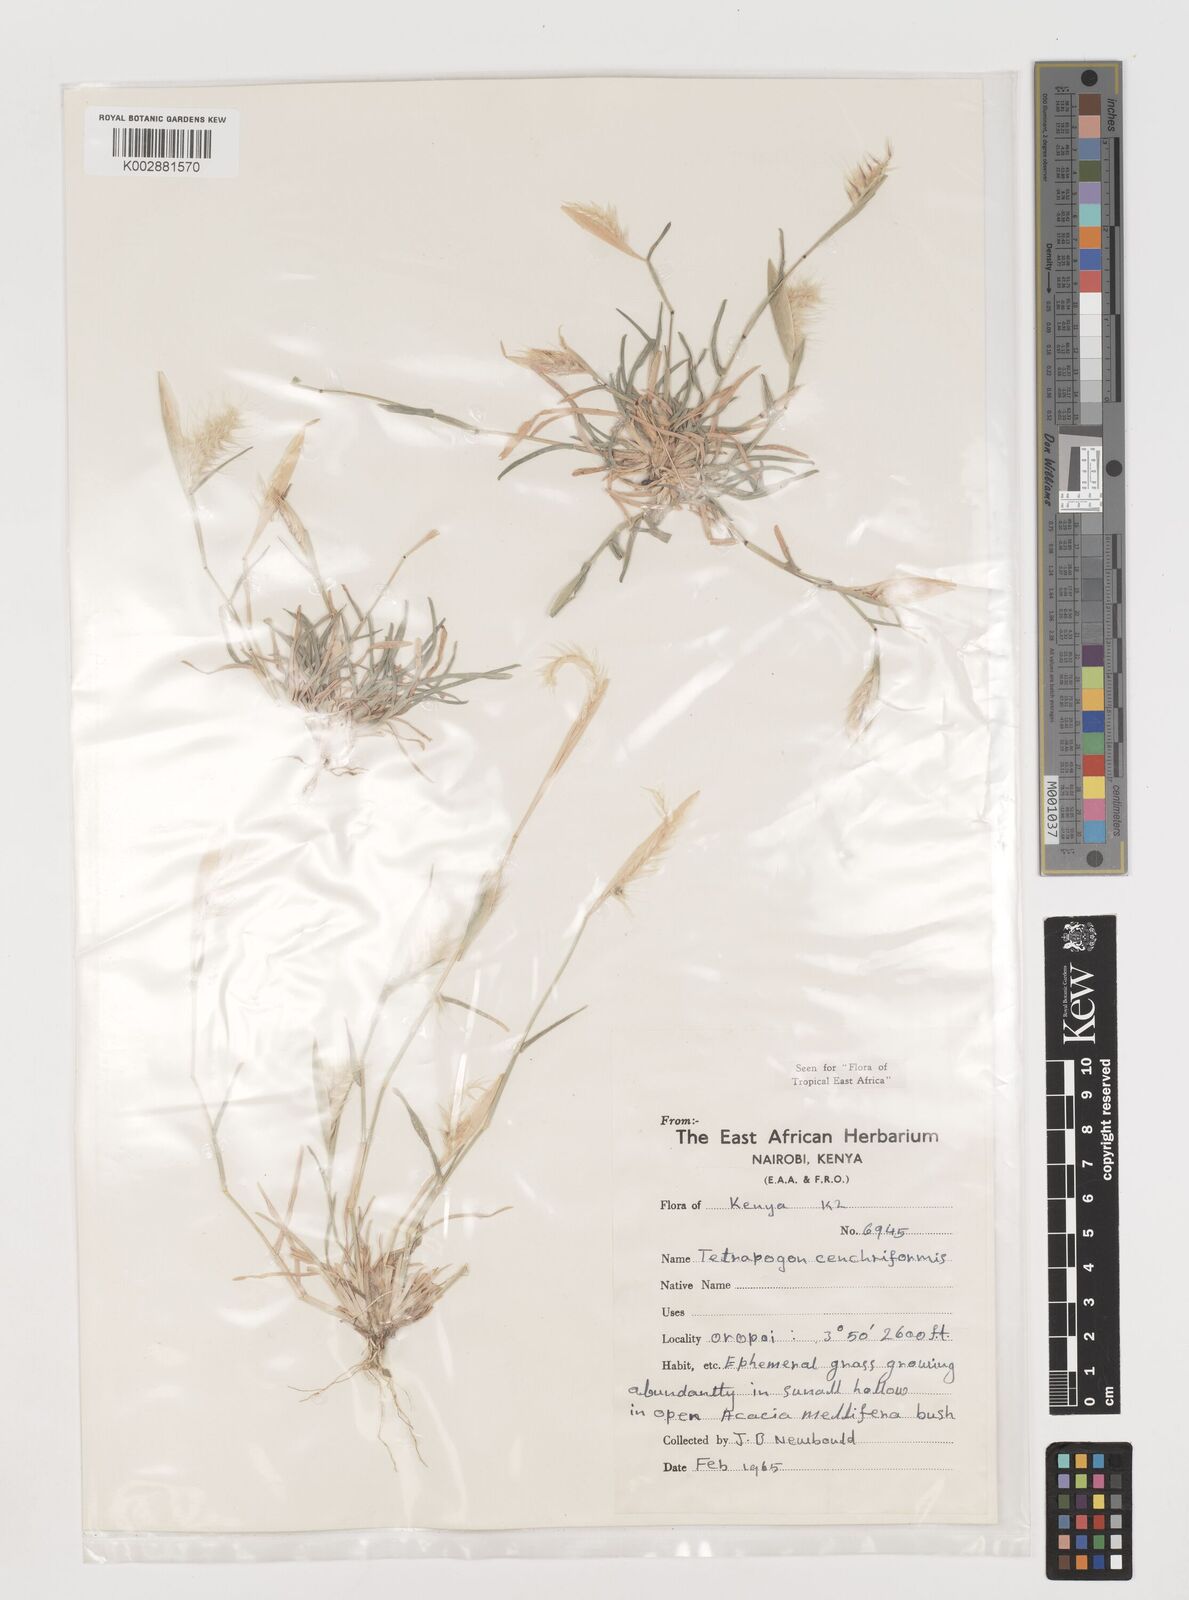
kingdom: Plantae
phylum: Tracheophyta
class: Liliopsida
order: Poales
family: Poaceae
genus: Tetrapogon
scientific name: Tetrapogon cenchriformis
